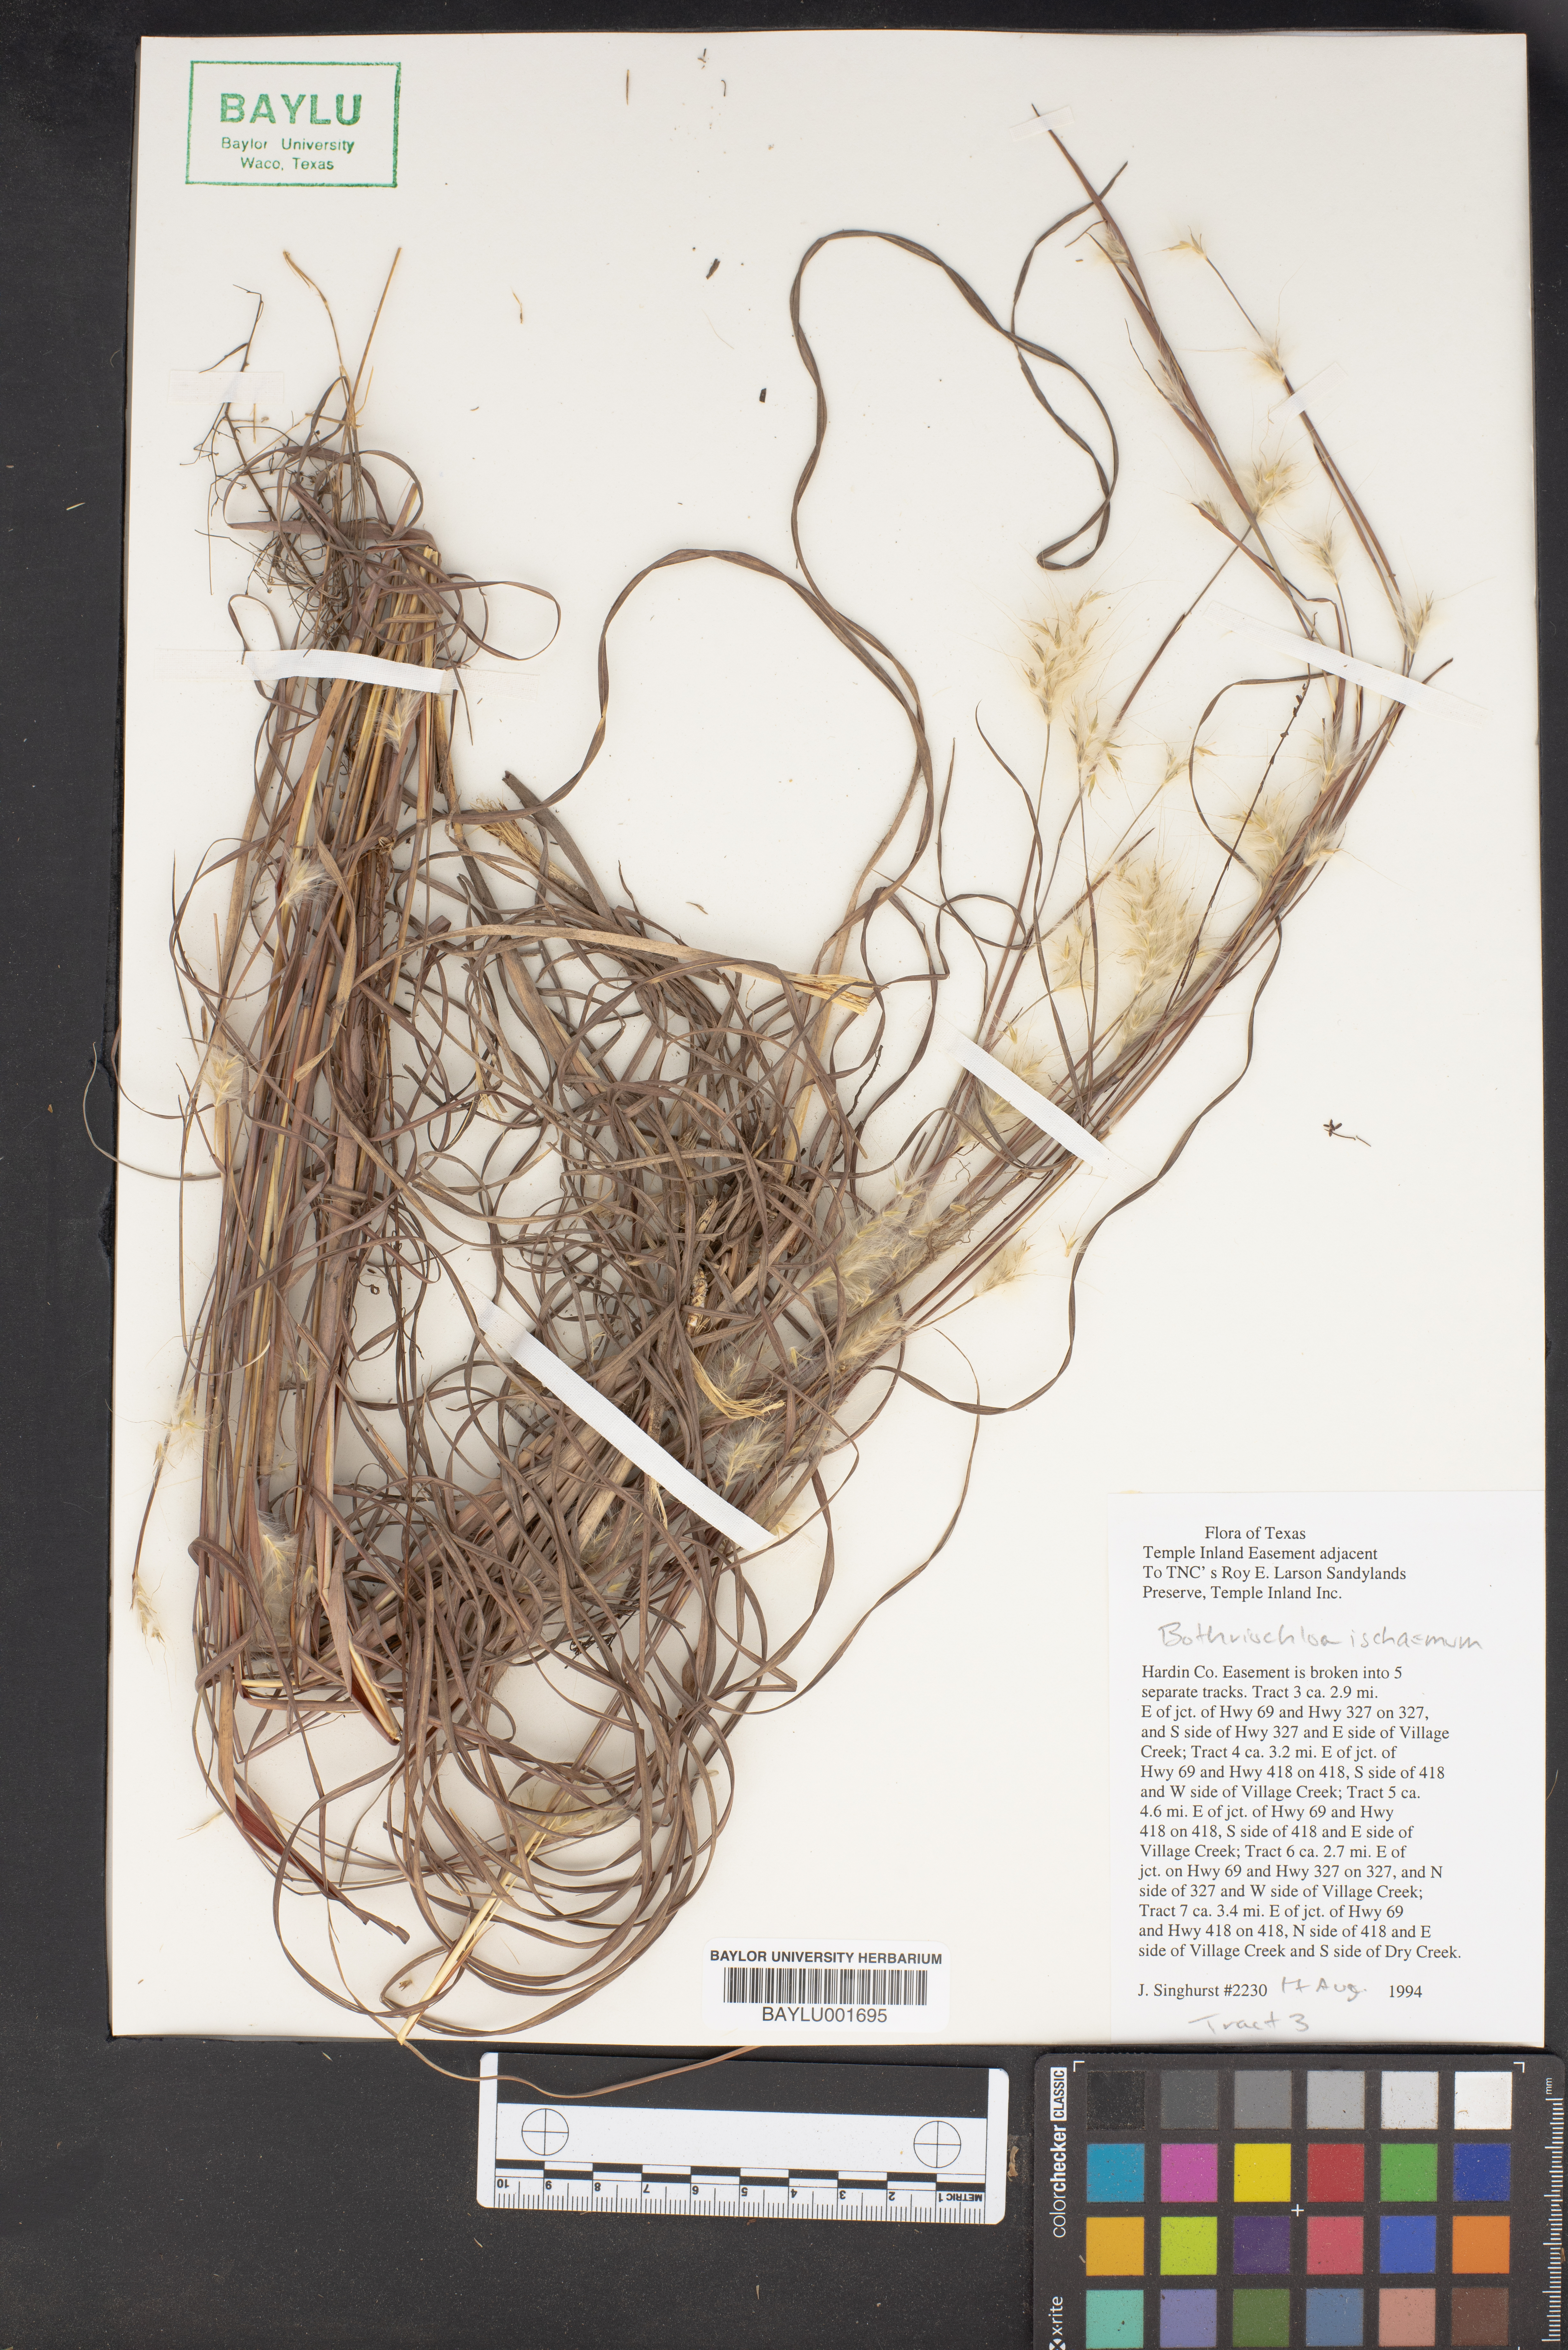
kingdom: Plantae
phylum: Tracheophyta
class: Liliopsida
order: Poales
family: Poaceae
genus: Bothriochloa
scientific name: Bothriochloa ischaemum
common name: Yellow bluestem
